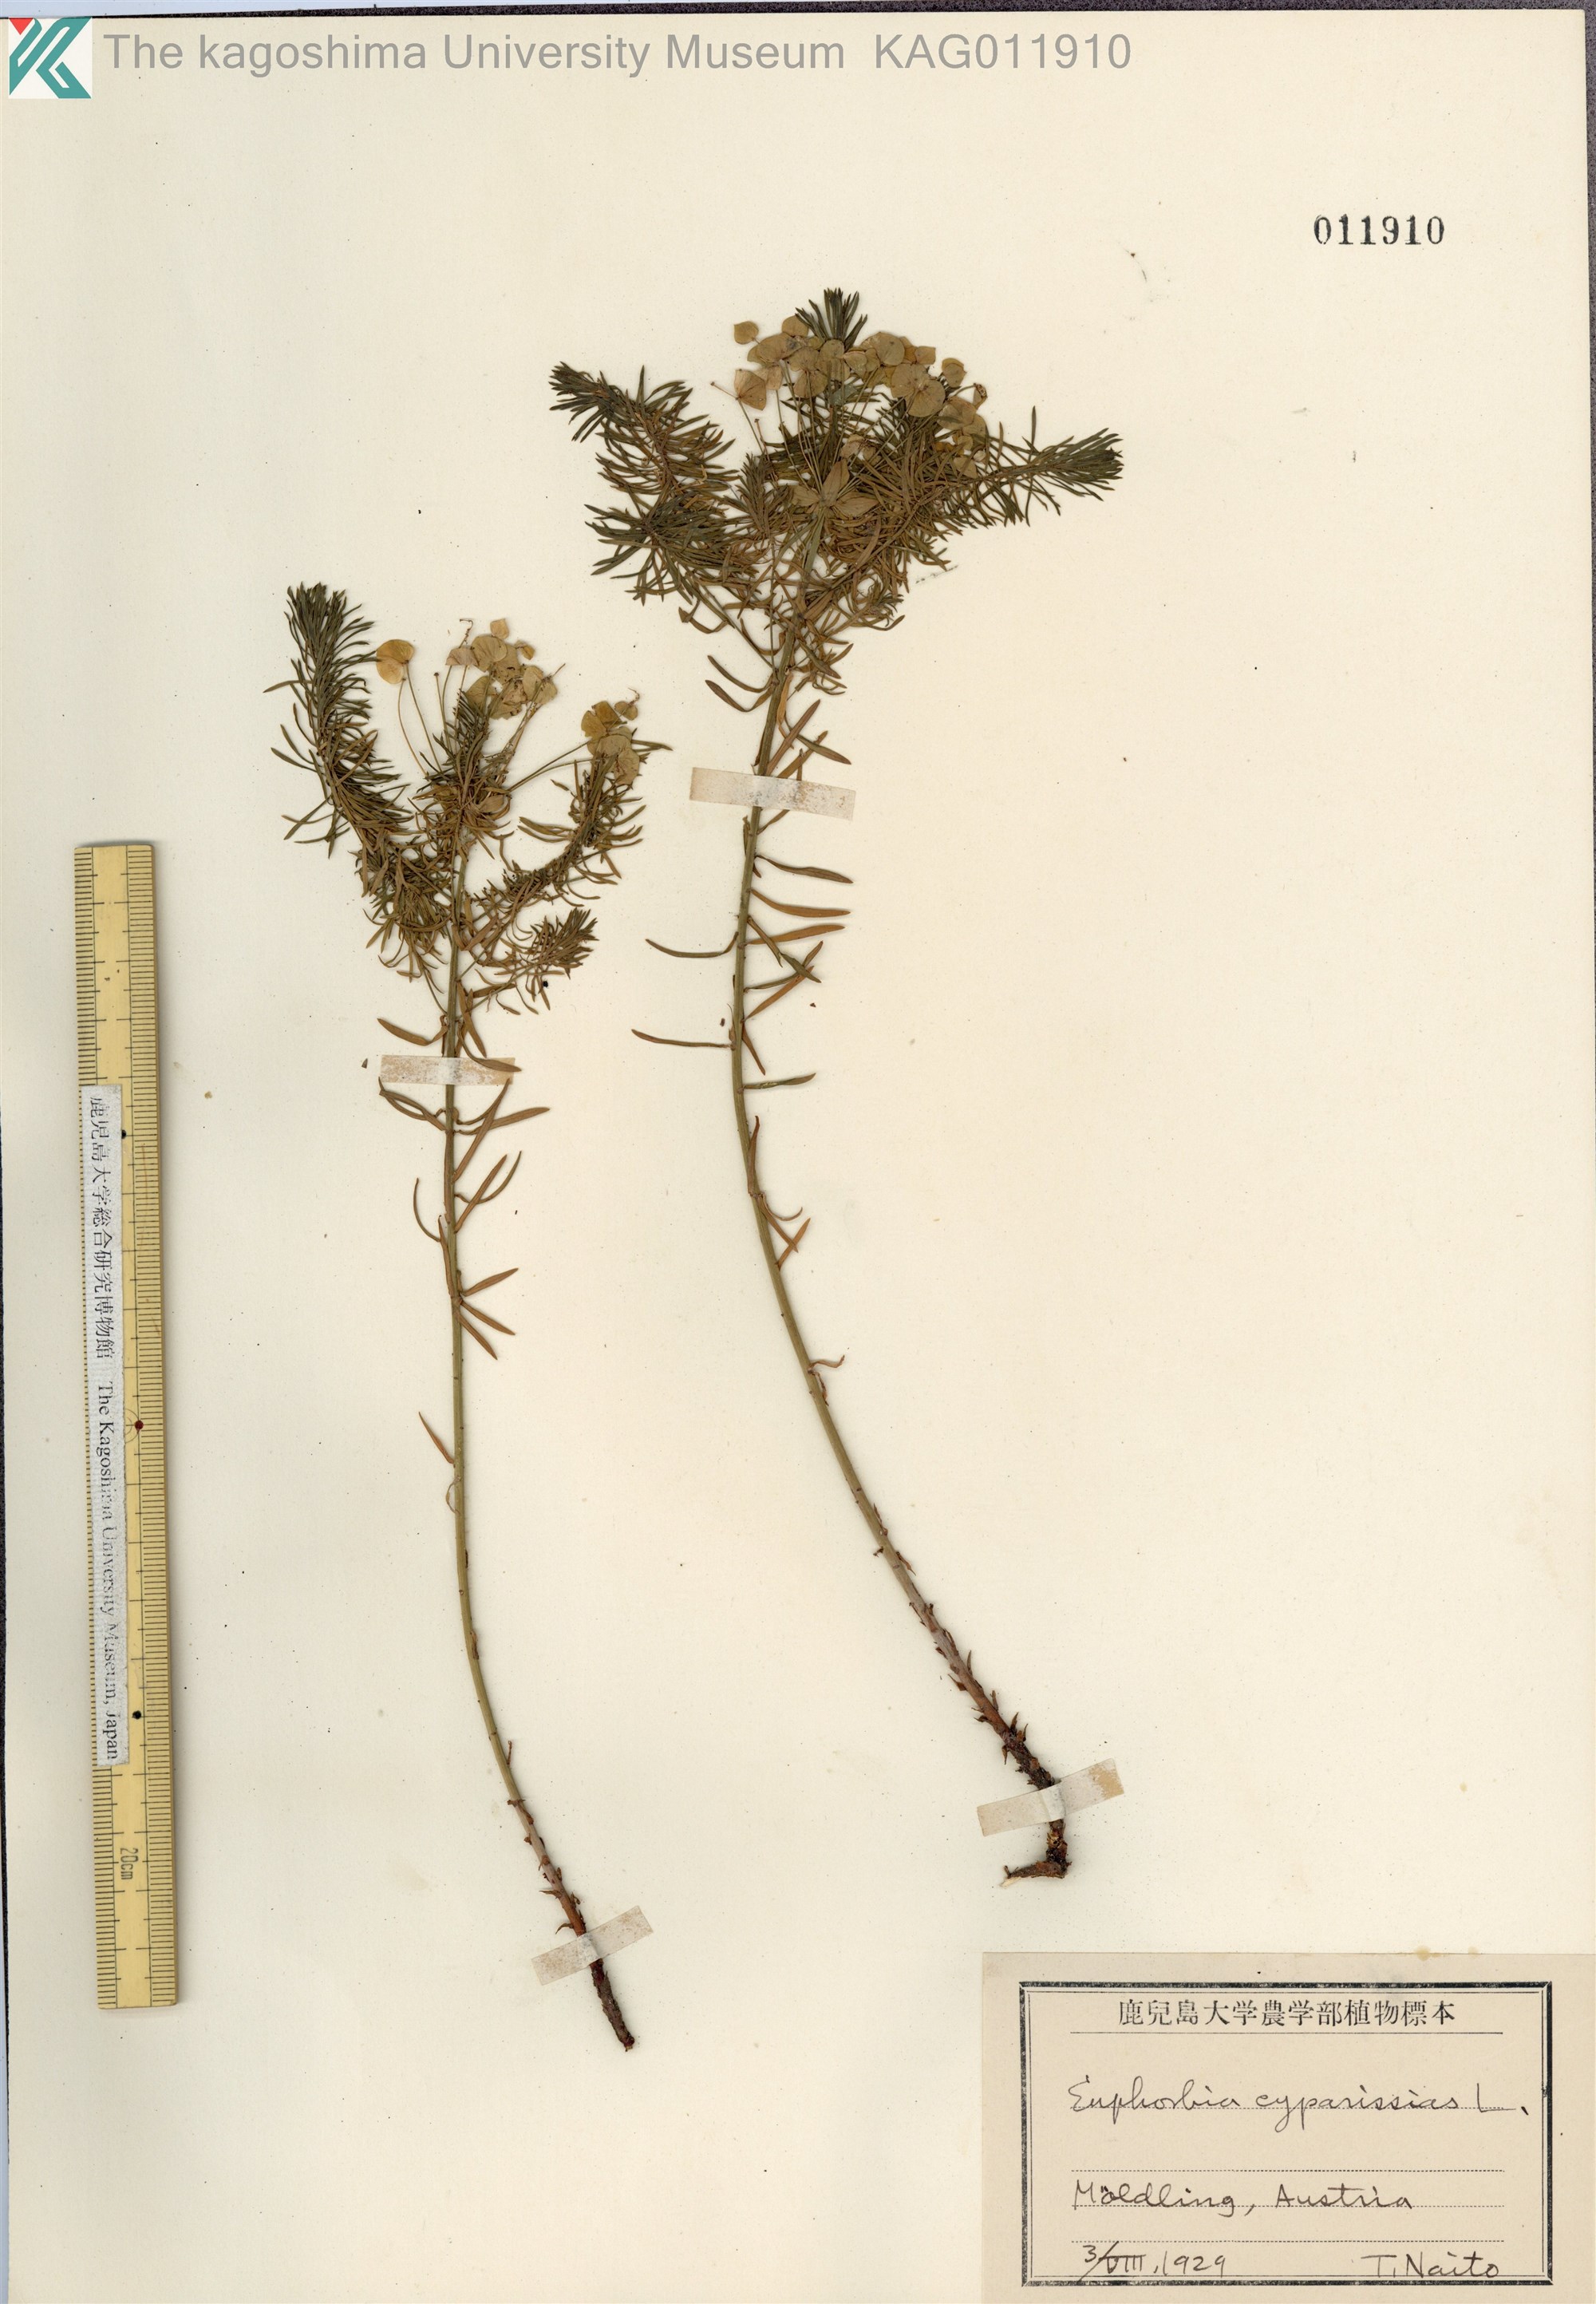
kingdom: Plantae
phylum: Tracheophyta
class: Magnoliopsida
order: Malpighiales
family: Euphorbiaceae
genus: Euphorbia
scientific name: Euphorbia cyparissias
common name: Cypress spurge
